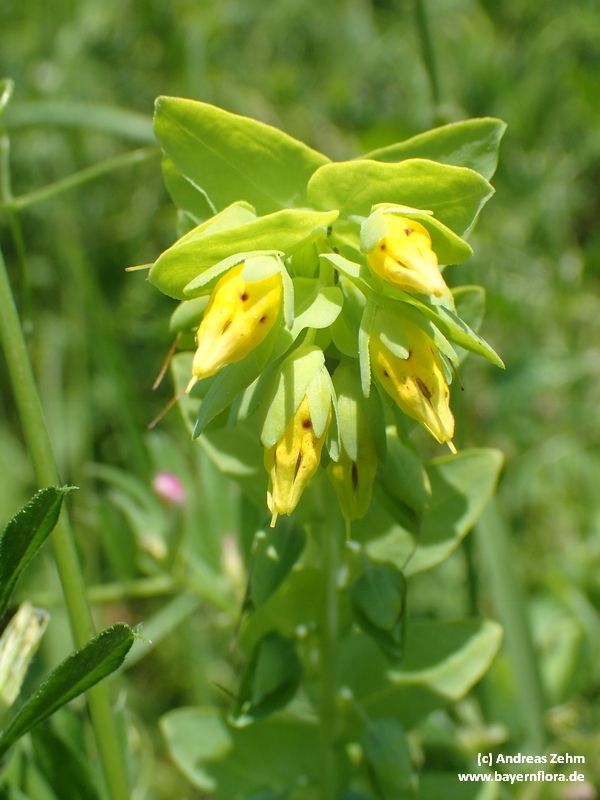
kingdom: Plantae
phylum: Tracheophyta
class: Magnoliopsida
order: Boraginales
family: Boraginaceae
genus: Cerinthe
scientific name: Cerinthe minor
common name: Lesser honeywort
